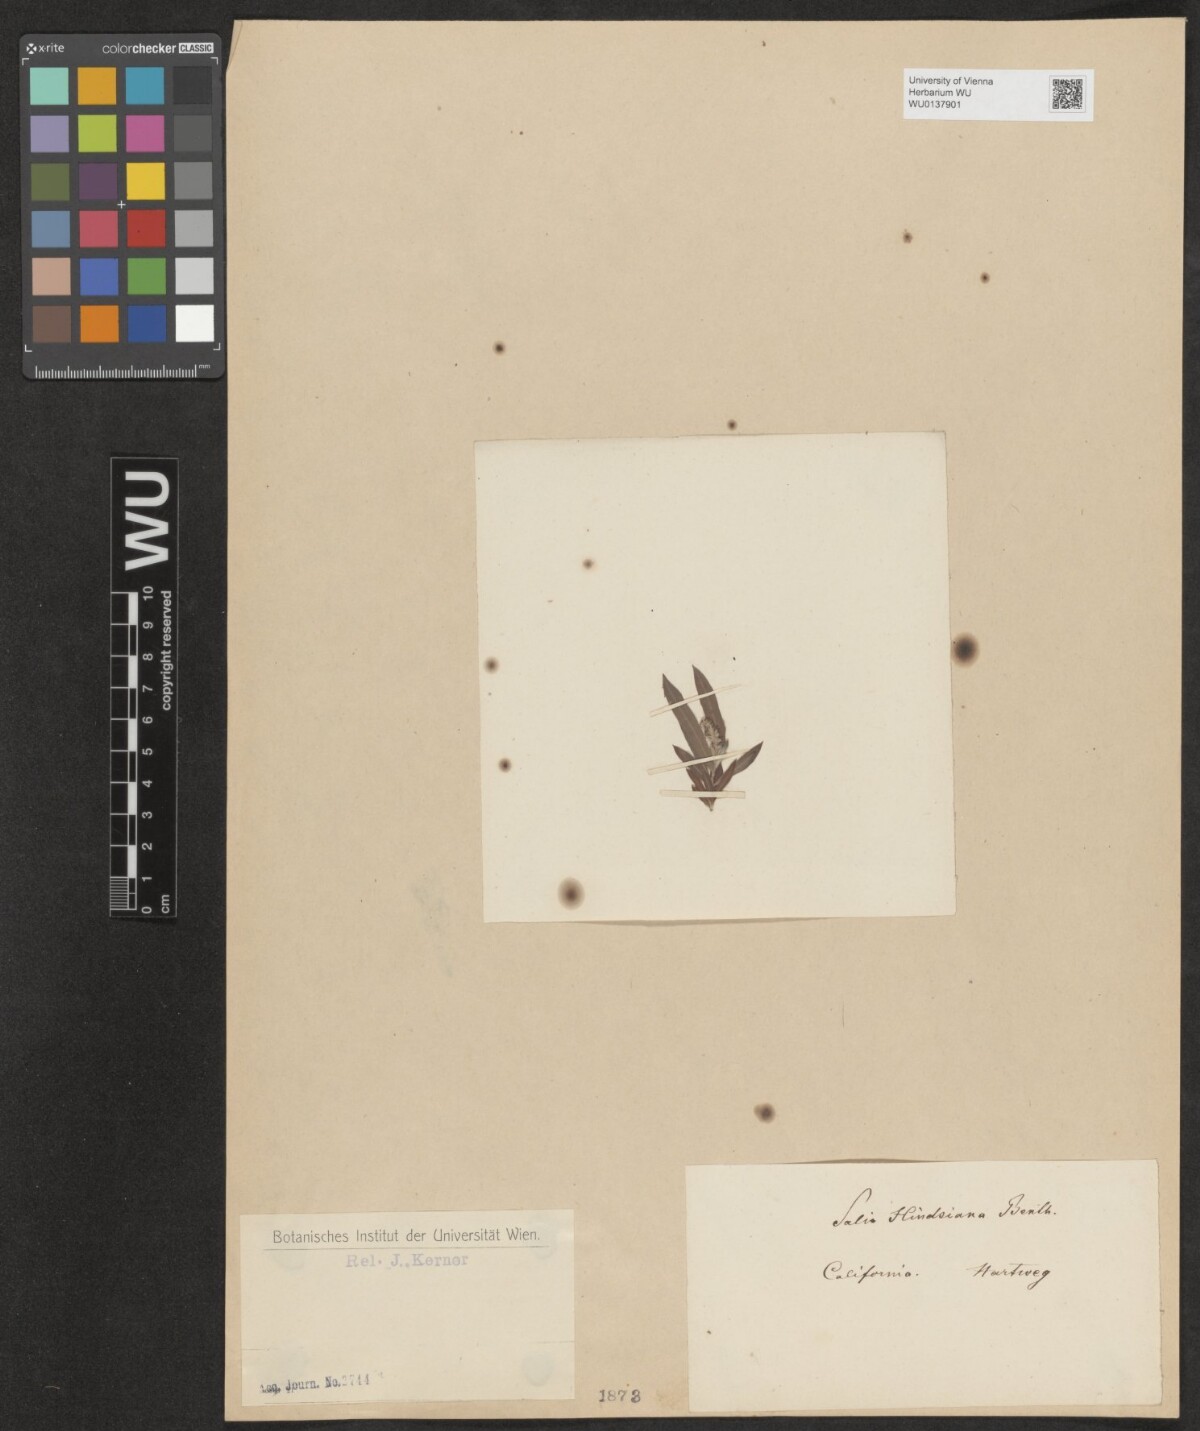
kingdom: Plantae
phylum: Tracheophyta
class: Magnoliopsida
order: Malpighiales
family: Salicaceae
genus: Salix
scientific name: Salix exigua
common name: Coyote willow
